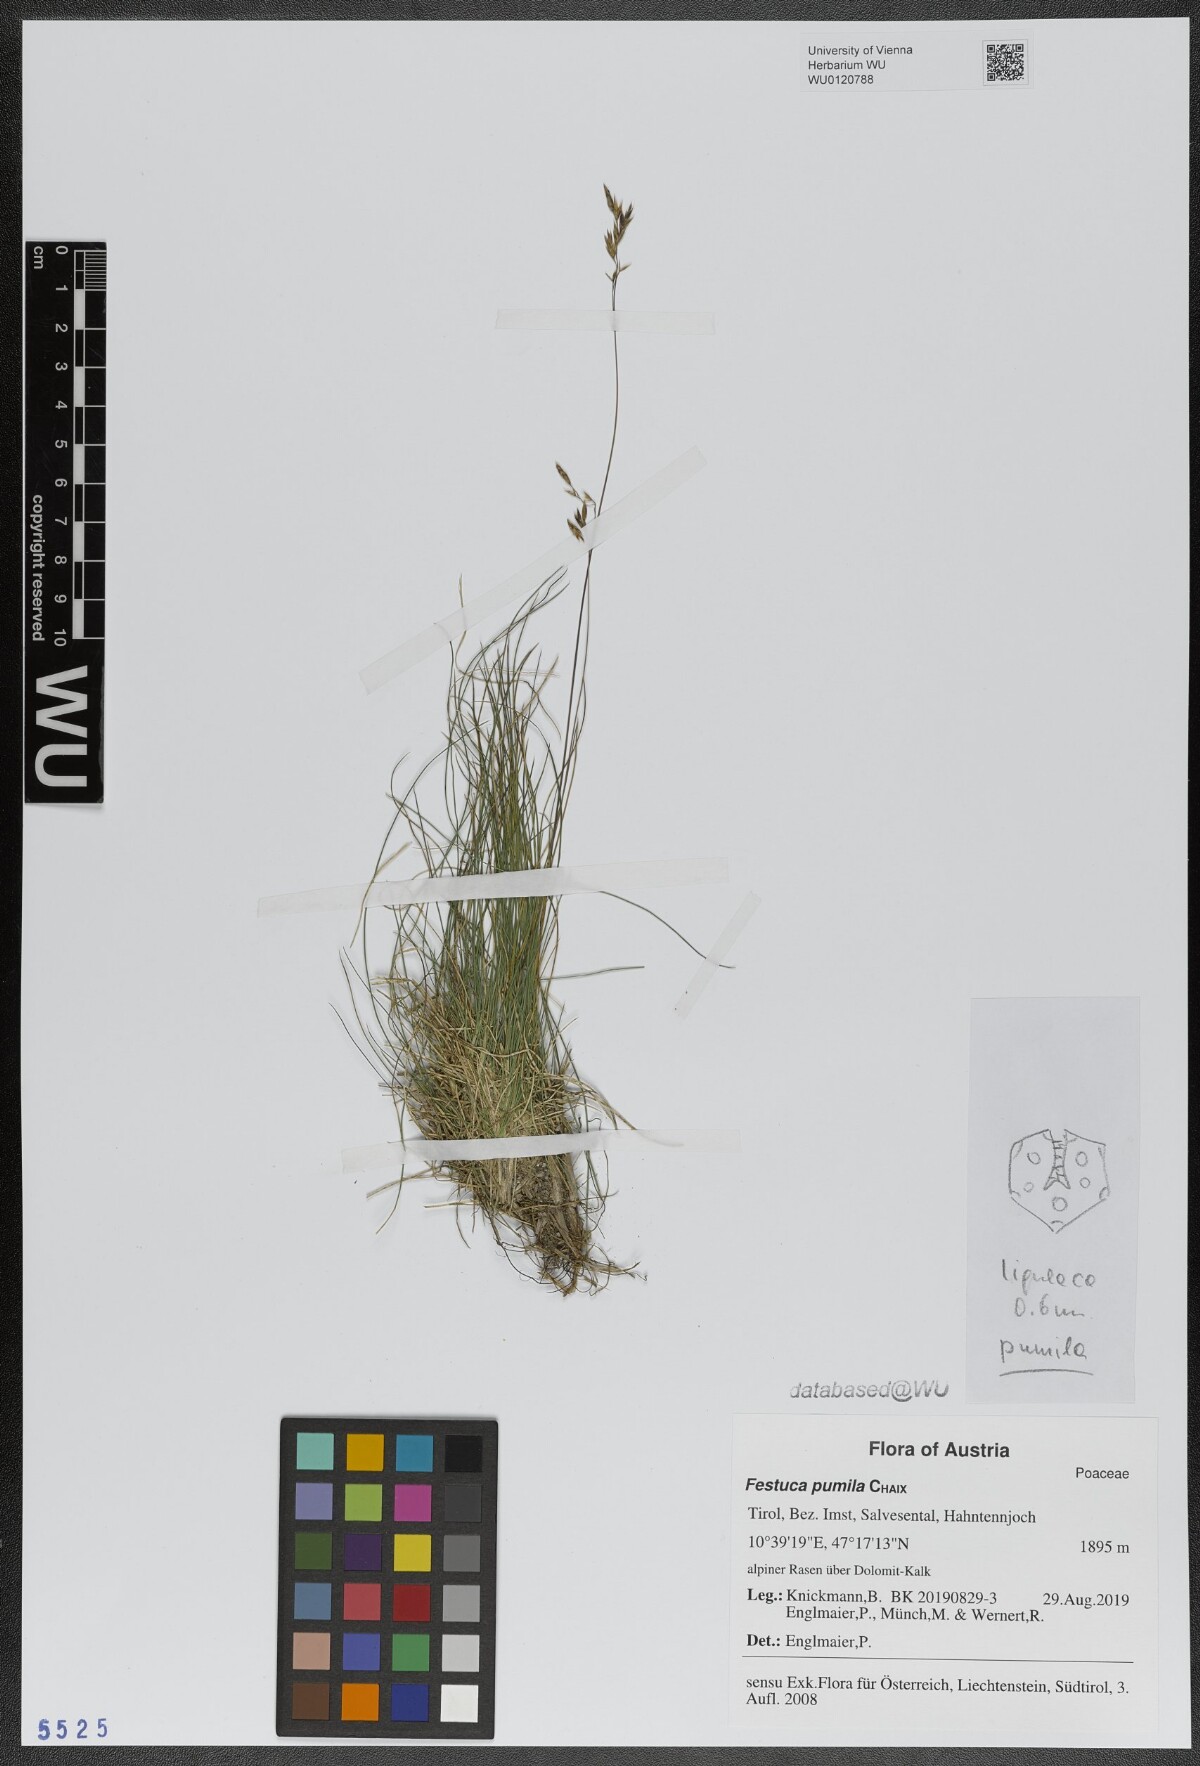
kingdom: Plantae
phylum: Tracheophyta
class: Liliopsida
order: Poales
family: Poaceae
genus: Festuca
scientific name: Festuca quadriflora
